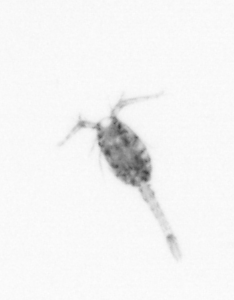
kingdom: Animalia
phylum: Arthropoda
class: Copepoda
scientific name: Copepoda
